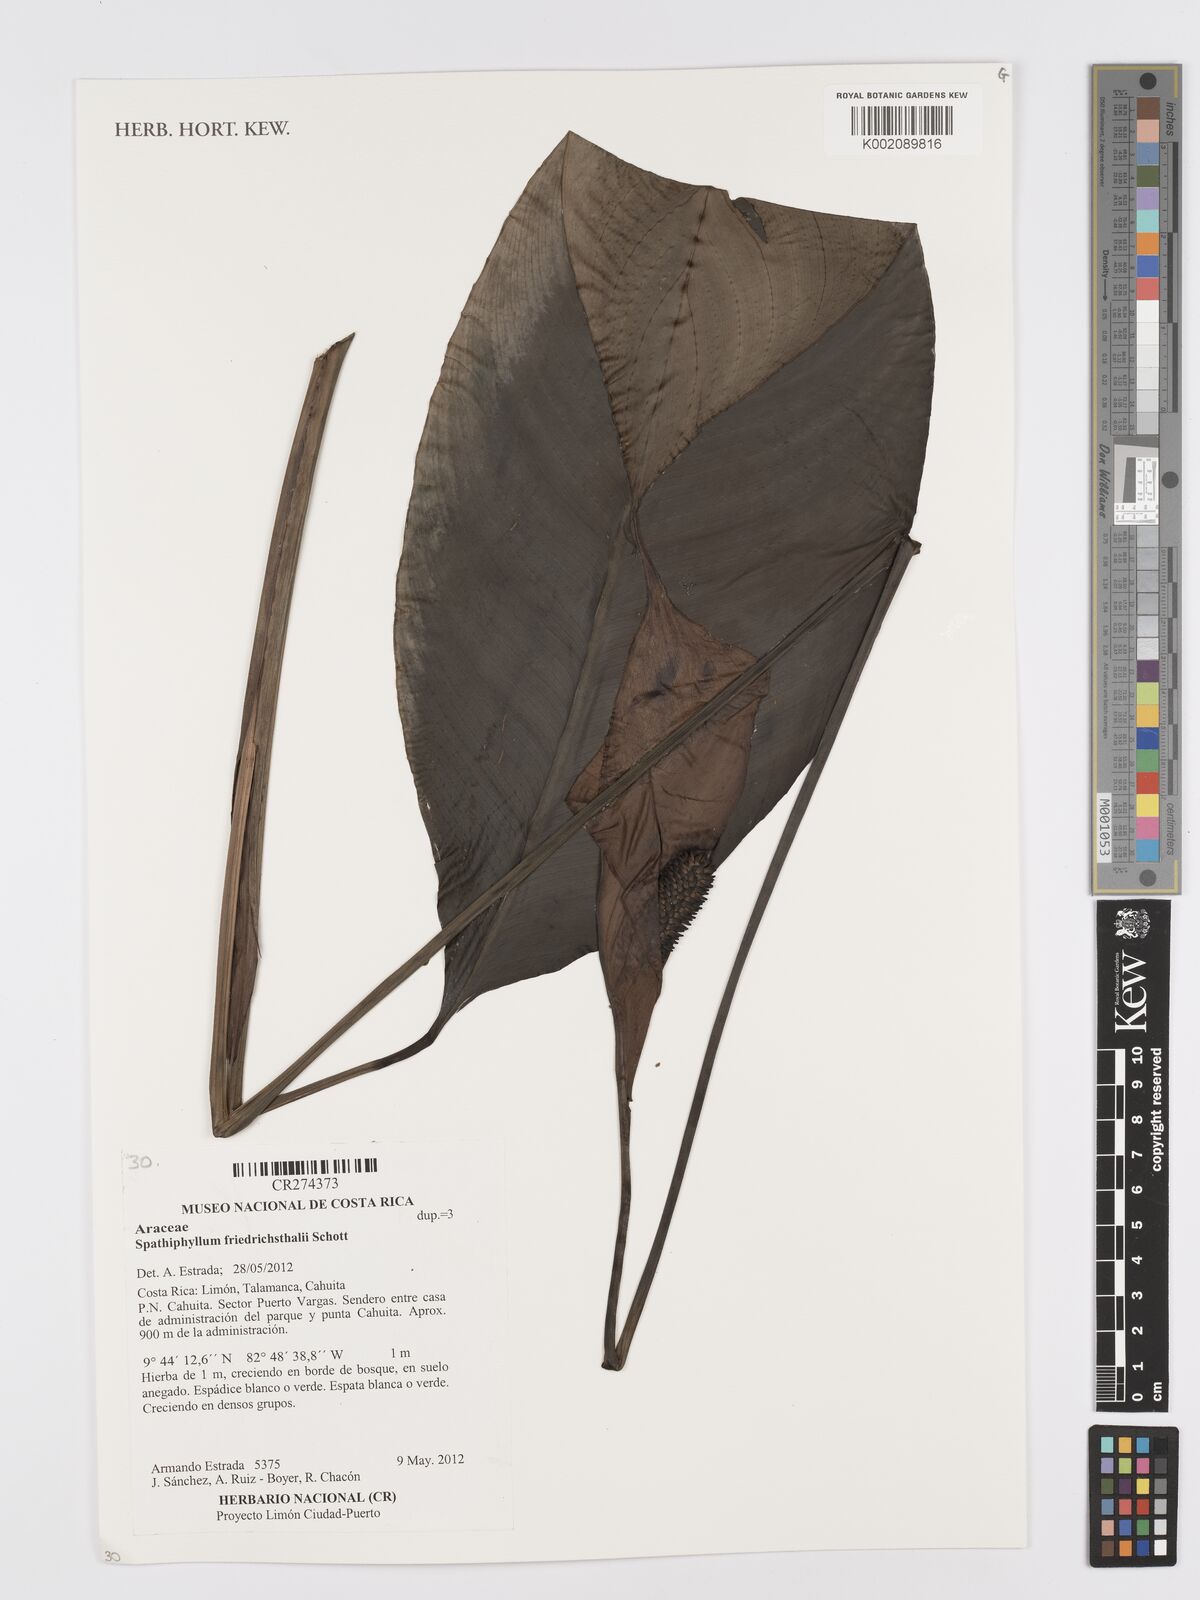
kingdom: Plantae
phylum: Tracheophyta
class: Liliopsida
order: Alismatales
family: Araceae
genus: Spathiphyllum
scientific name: Spathiphyllum friedrichsthalii
